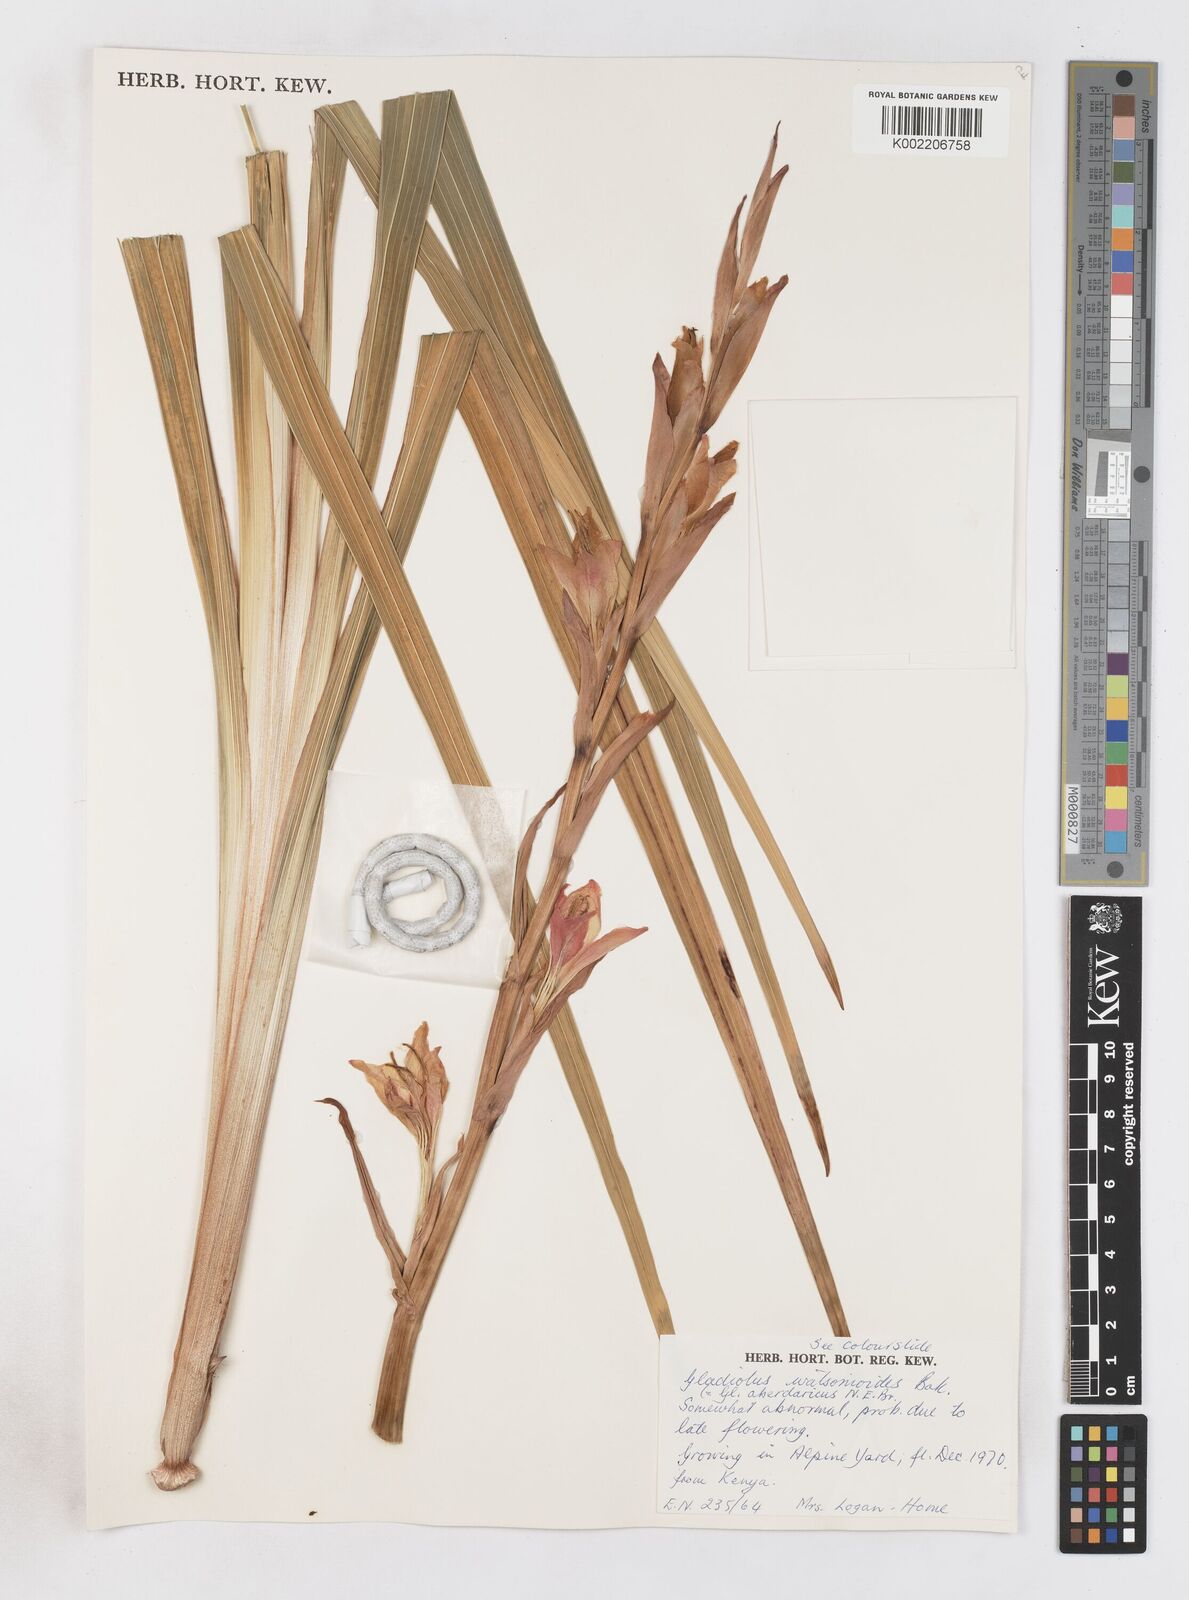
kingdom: Plantae
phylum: Tracheophyta
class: Liliopsida
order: Asparagales
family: Iridaceae
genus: Gladiolus
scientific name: Gladiolus watsonioides
